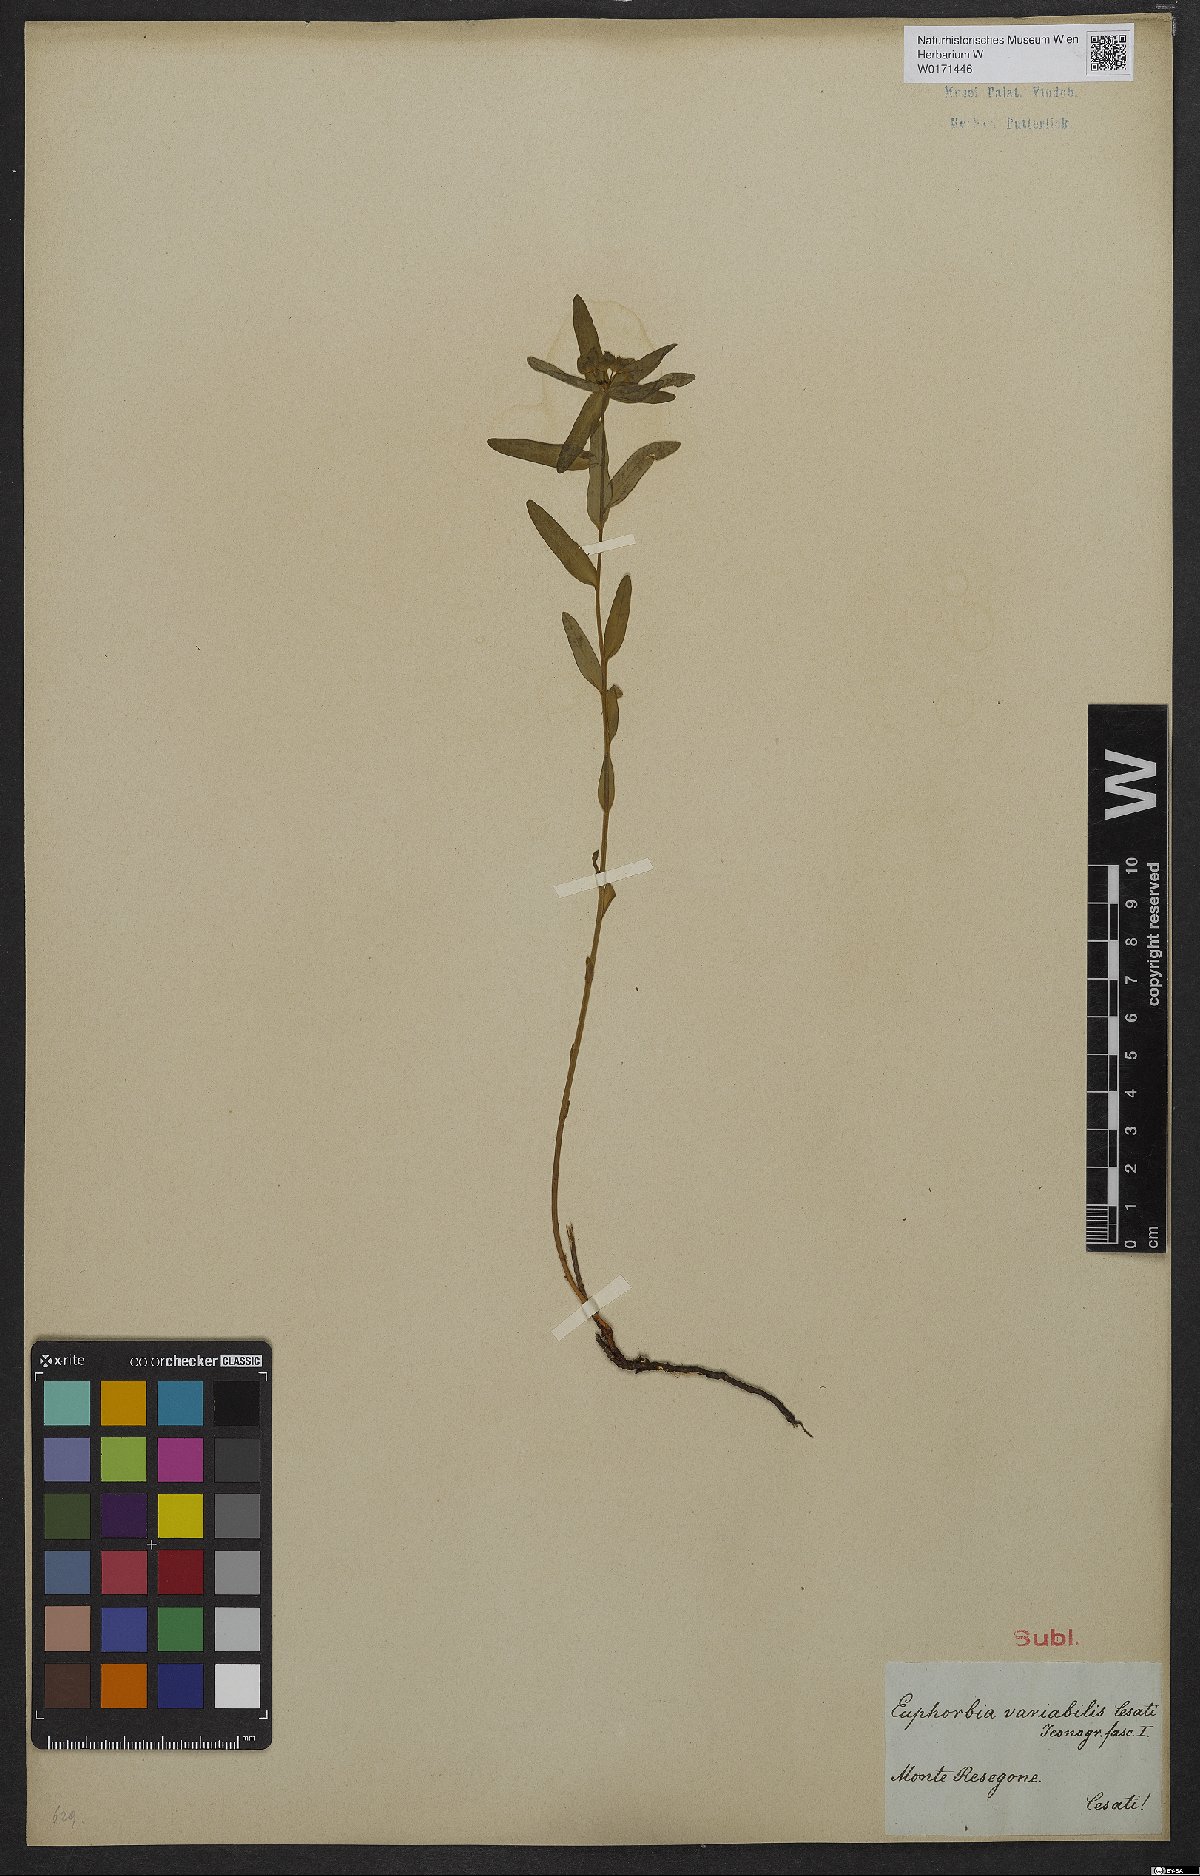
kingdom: Plantae
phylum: Tracheophyta
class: Magnoliopsida
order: Malpighiales
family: Euphorbiaceae
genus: Euphorbia
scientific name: Euphorbia variabilis
